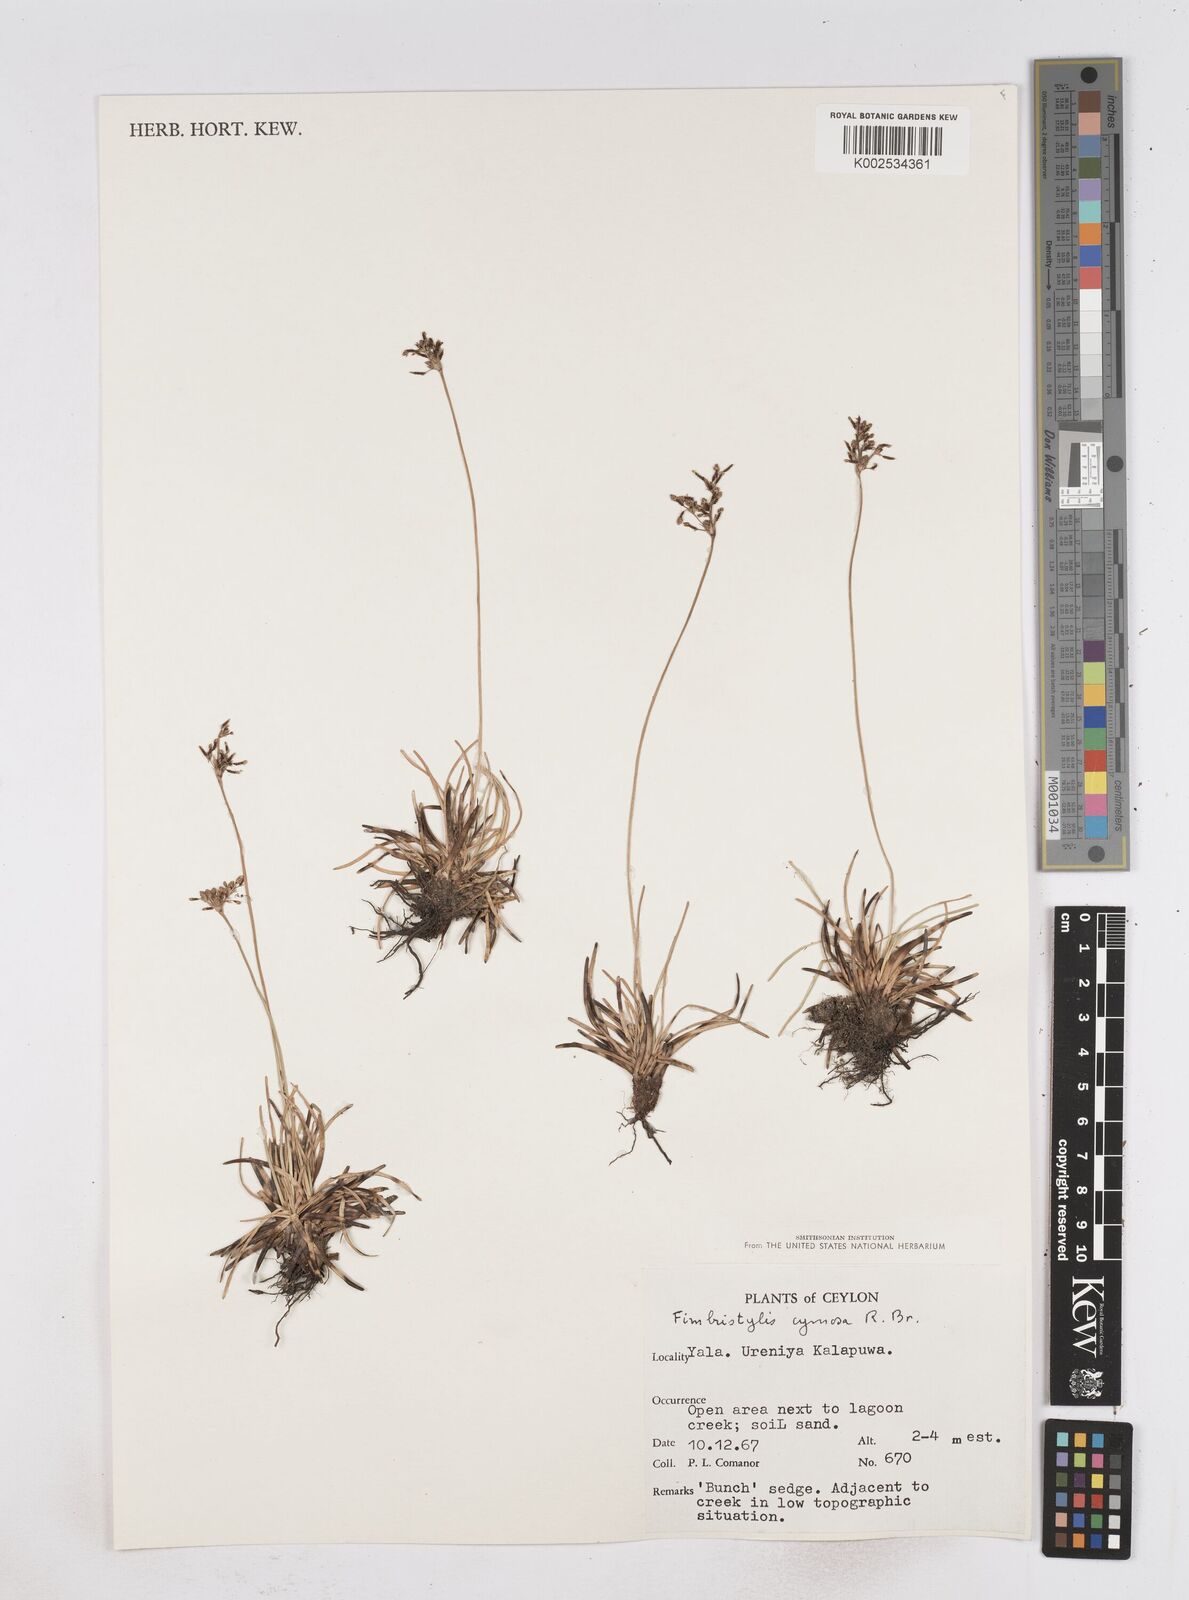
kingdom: Plantae
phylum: Tracheophyta
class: Liliopsida
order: Poales
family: Cyperaceae
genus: Fimbristylis
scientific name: Fimbristylis cymosa
